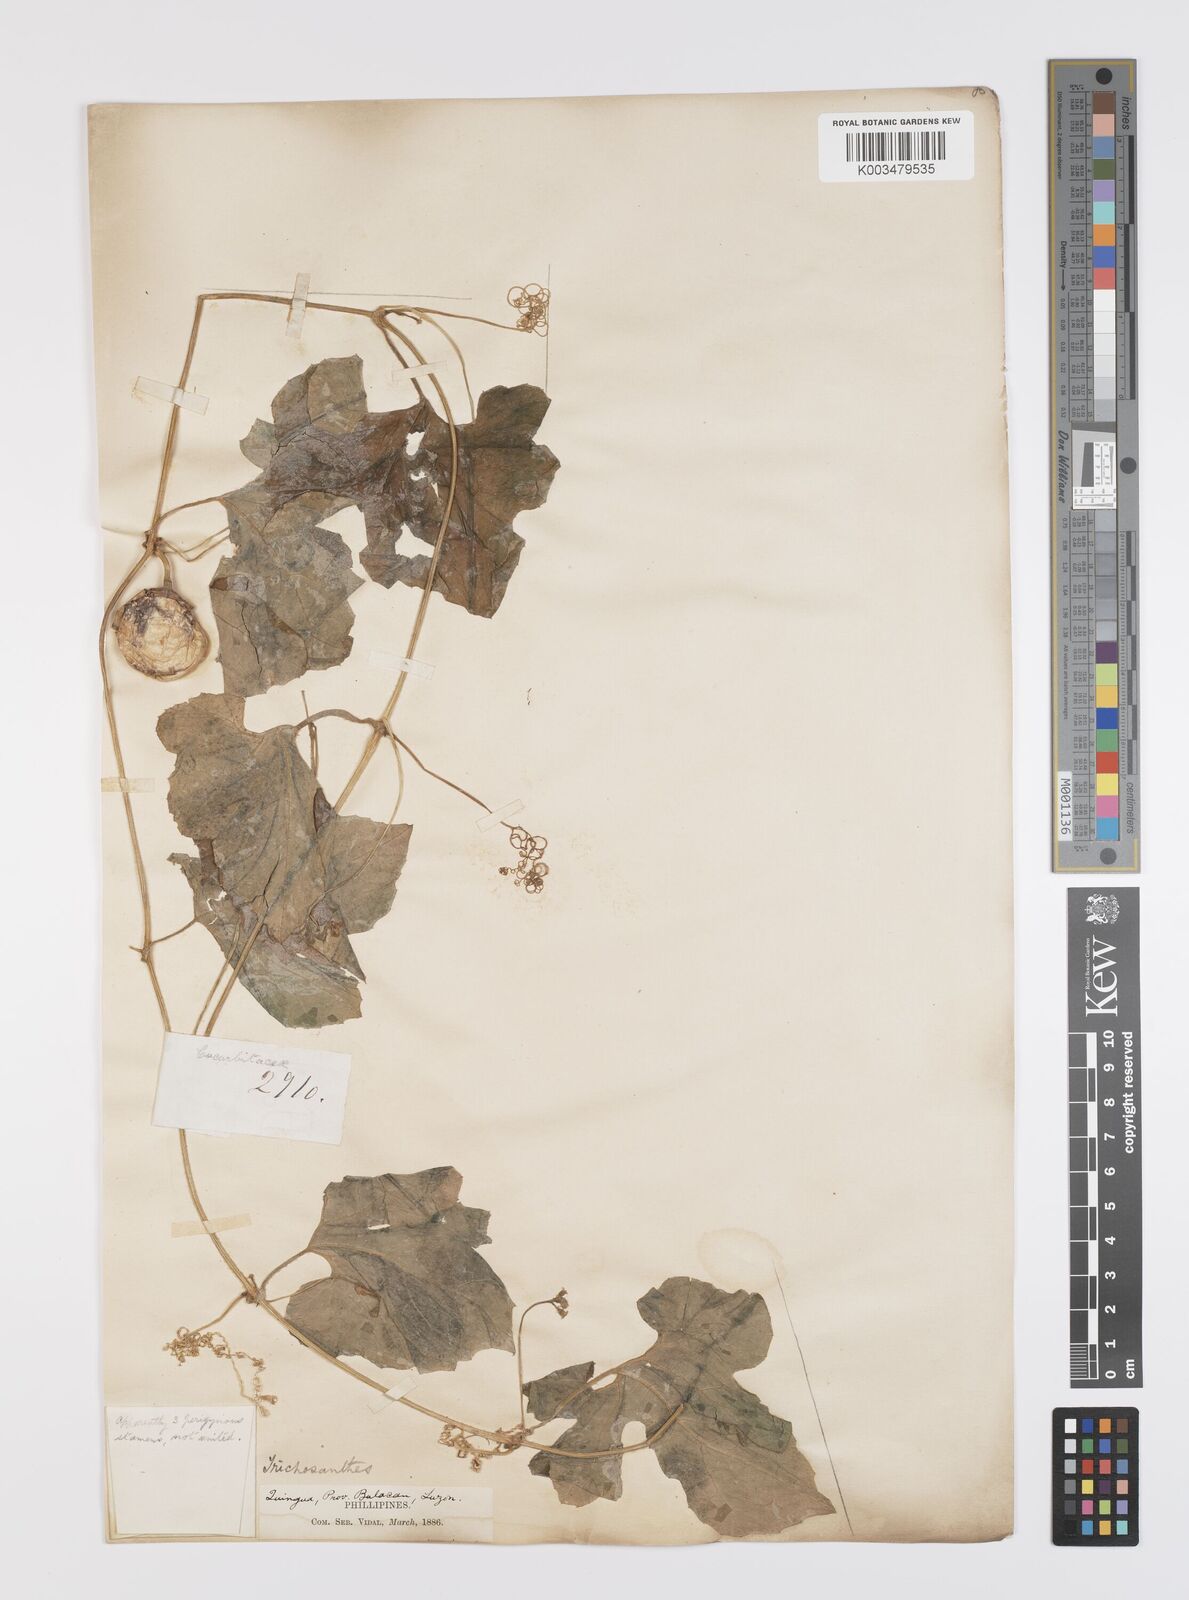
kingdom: Plantae
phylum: Tracheophyta
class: Magnoliopsida
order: Cucurbitales
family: Cucurbitaceae
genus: Trichosanthes
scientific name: Trichosanthes cucumerina
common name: Snakegourd
